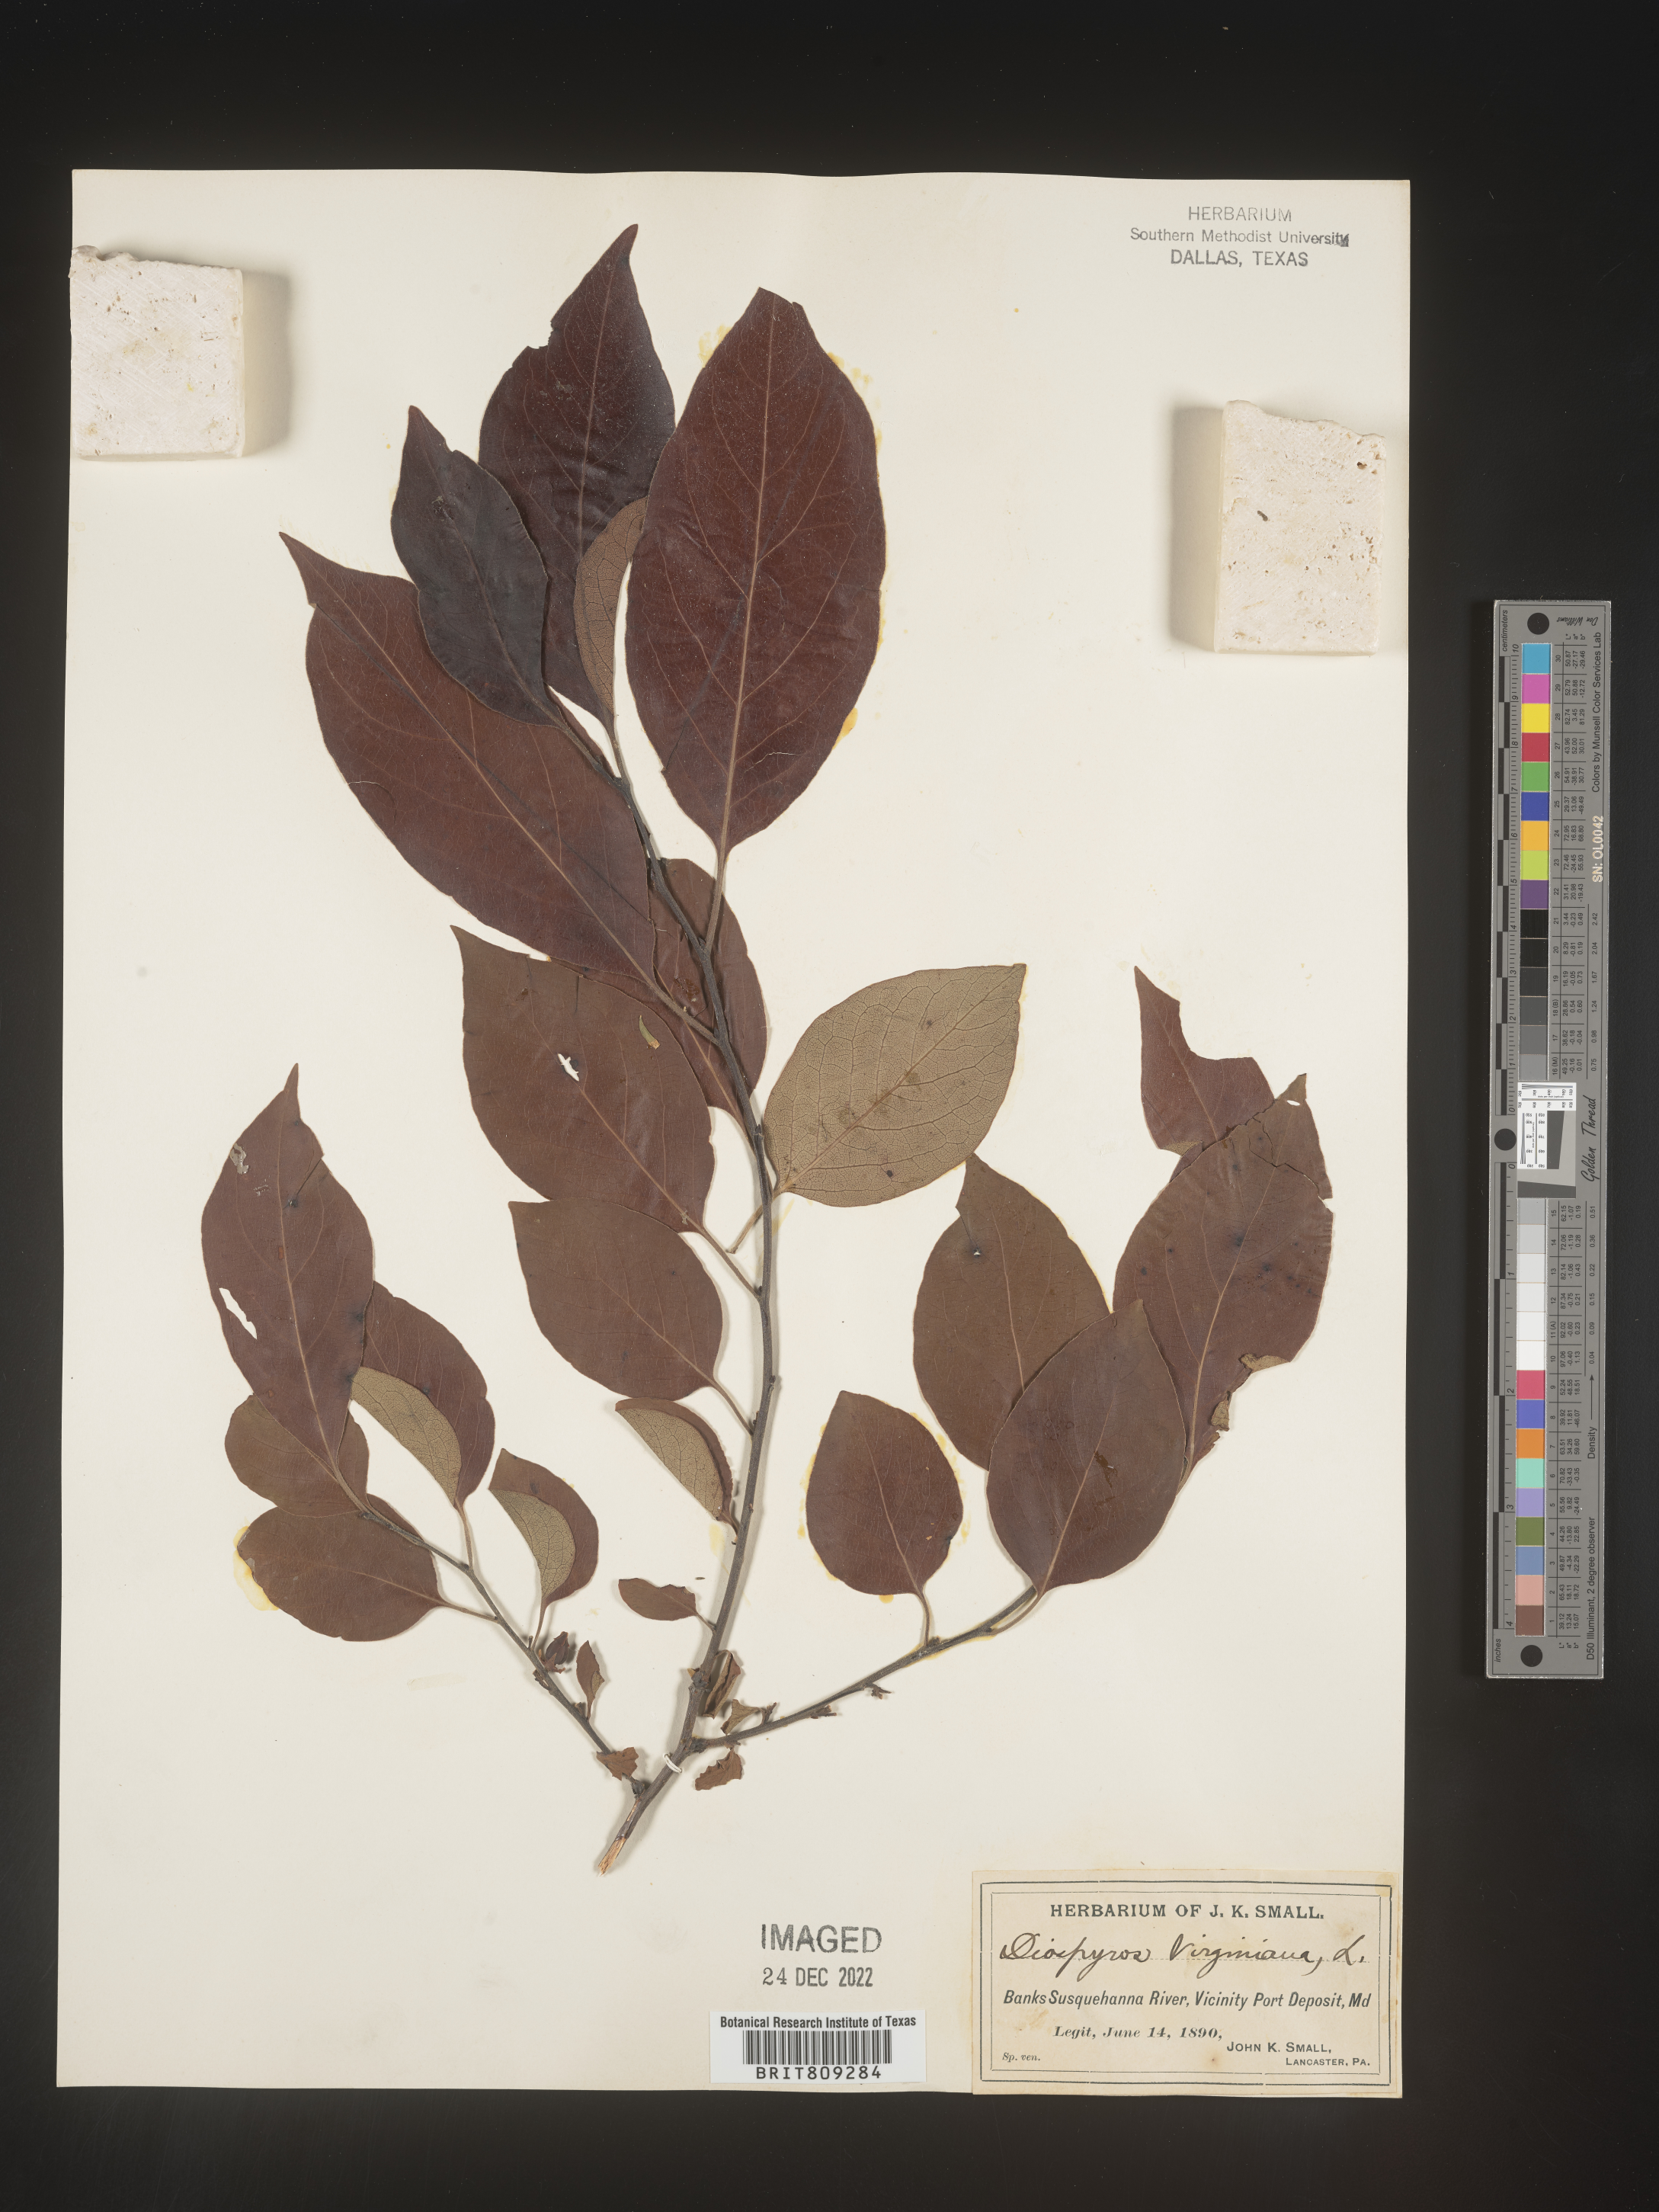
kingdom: Plantae
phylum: Tracheophyta
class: Magnoliopsida
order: Ericales
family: Ebenaceae
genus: Diospyros
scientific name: Diospyros virginiana
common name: Persimmon
